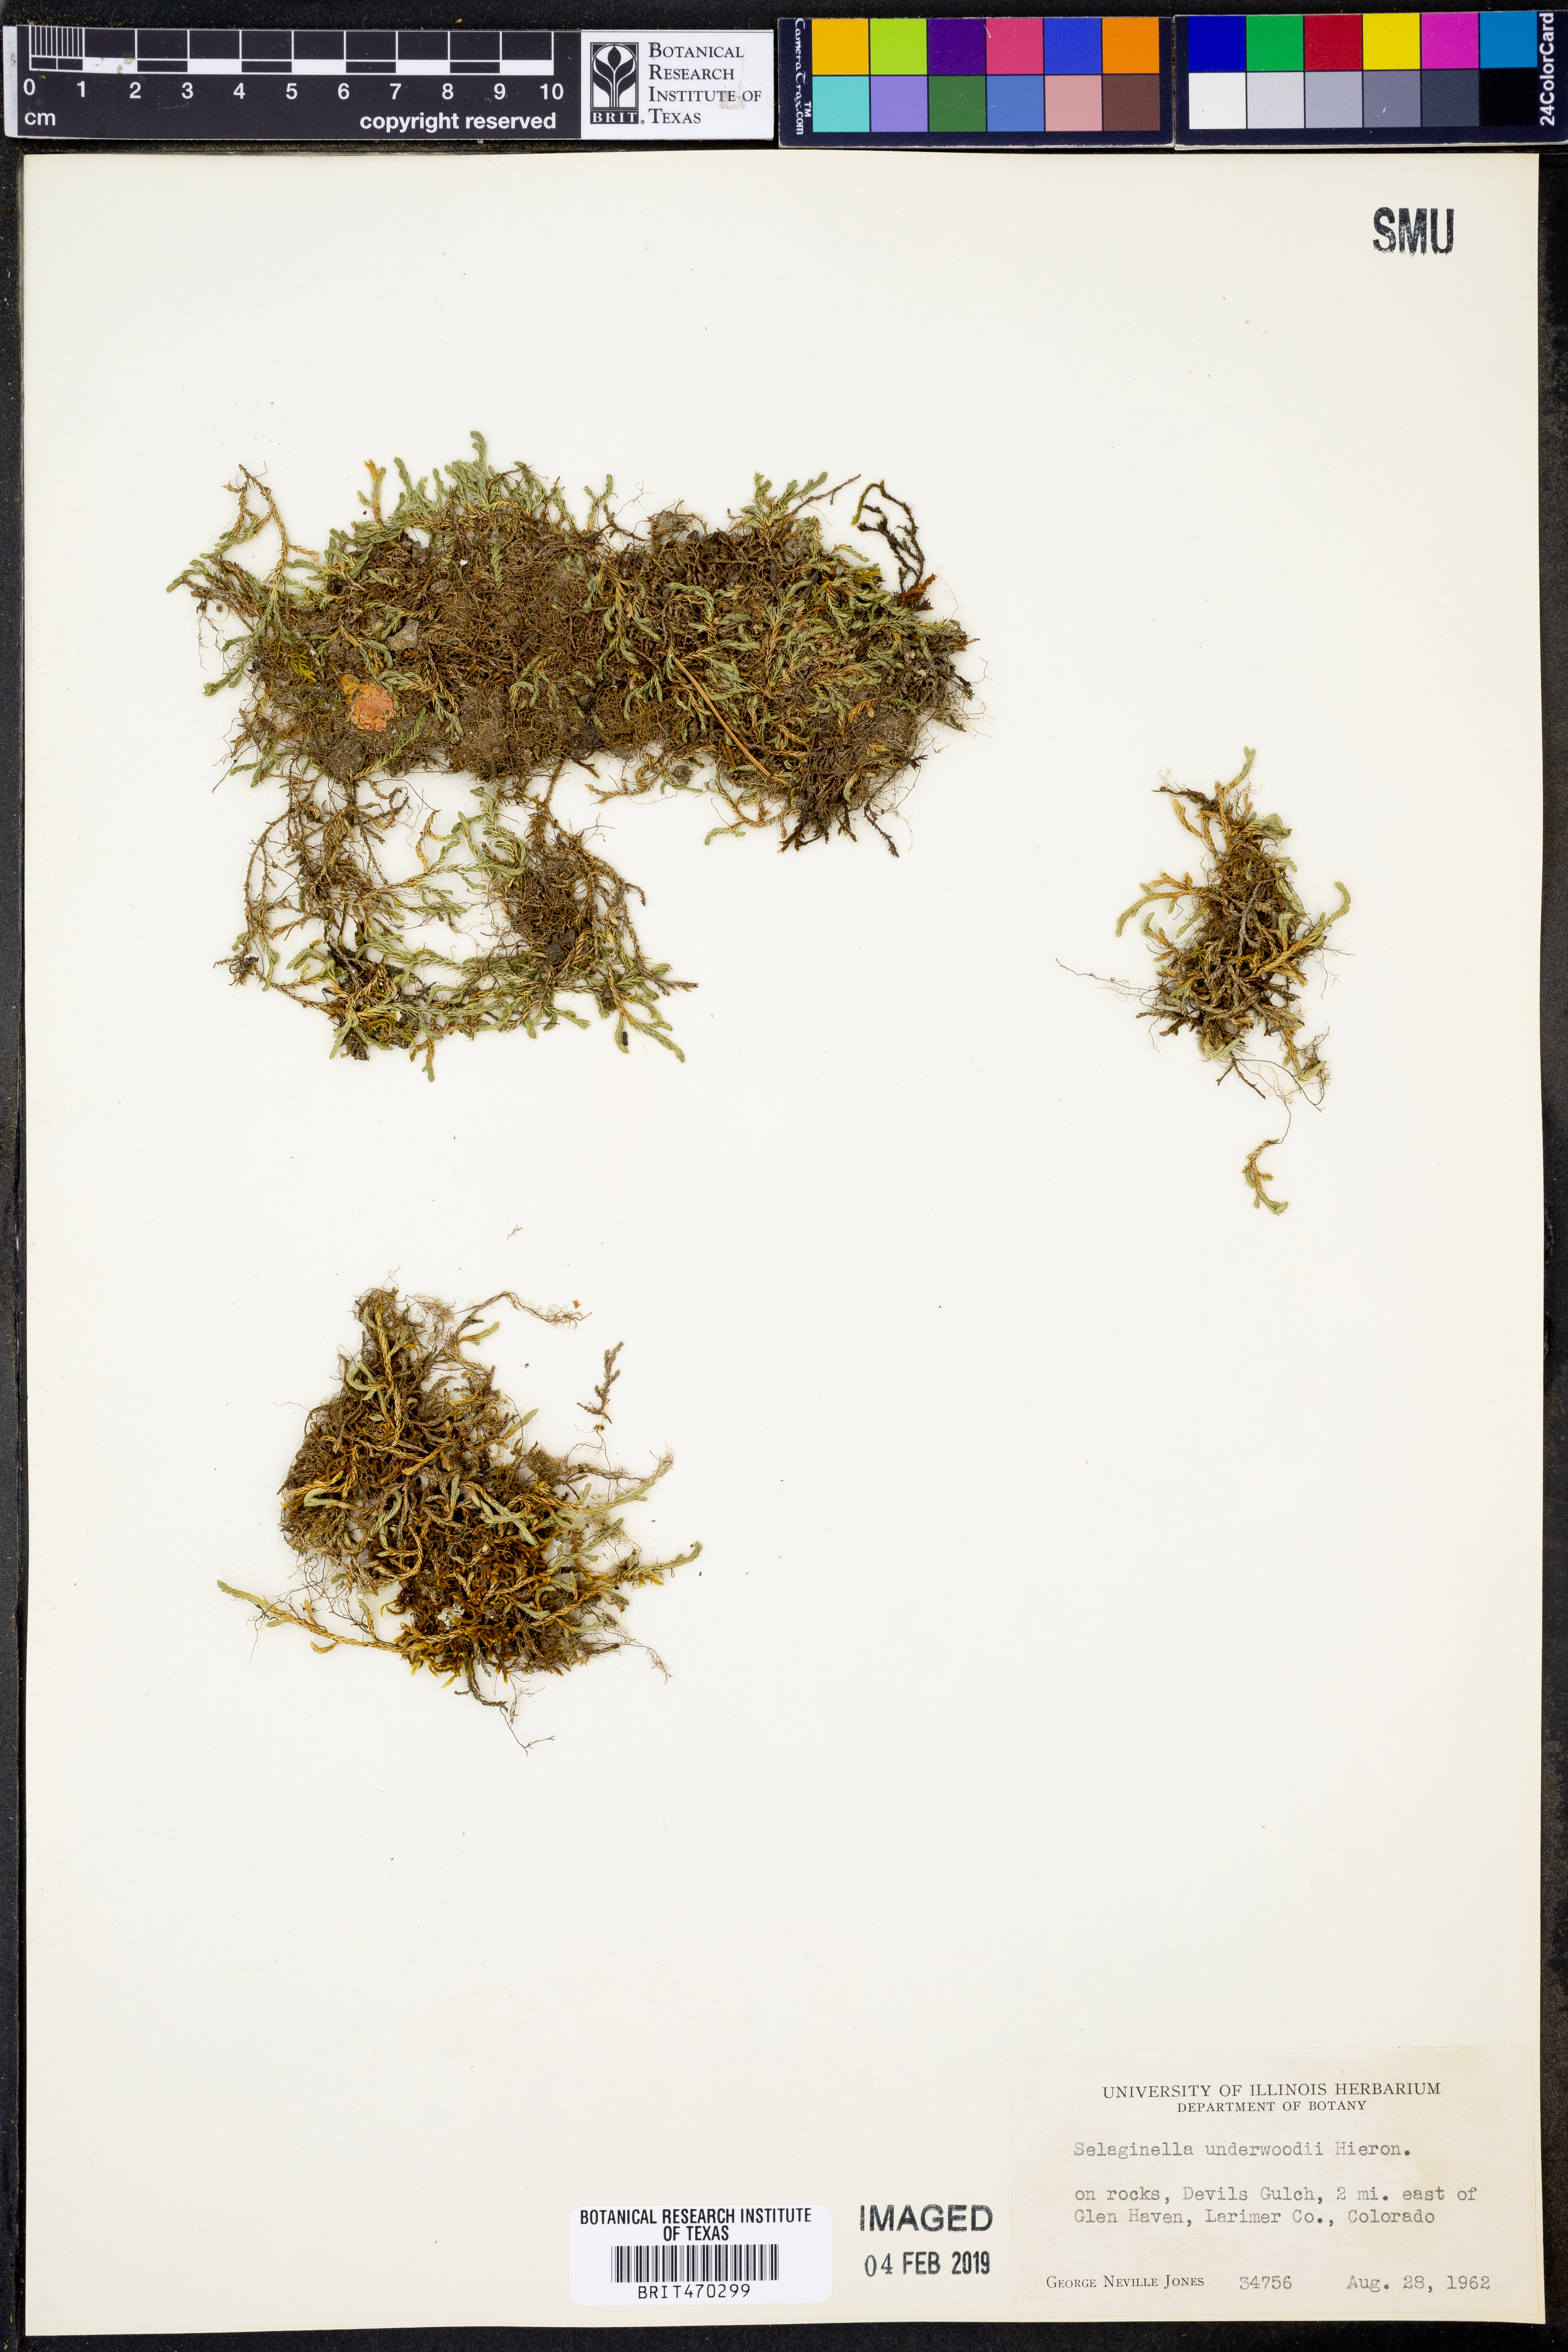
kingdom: Plantae
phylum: Tracheophyta
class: Lycopodiopsida
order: Selaginellales
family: Selaginellaceae
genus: Selaginella
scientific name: Selaginella underwoodii
